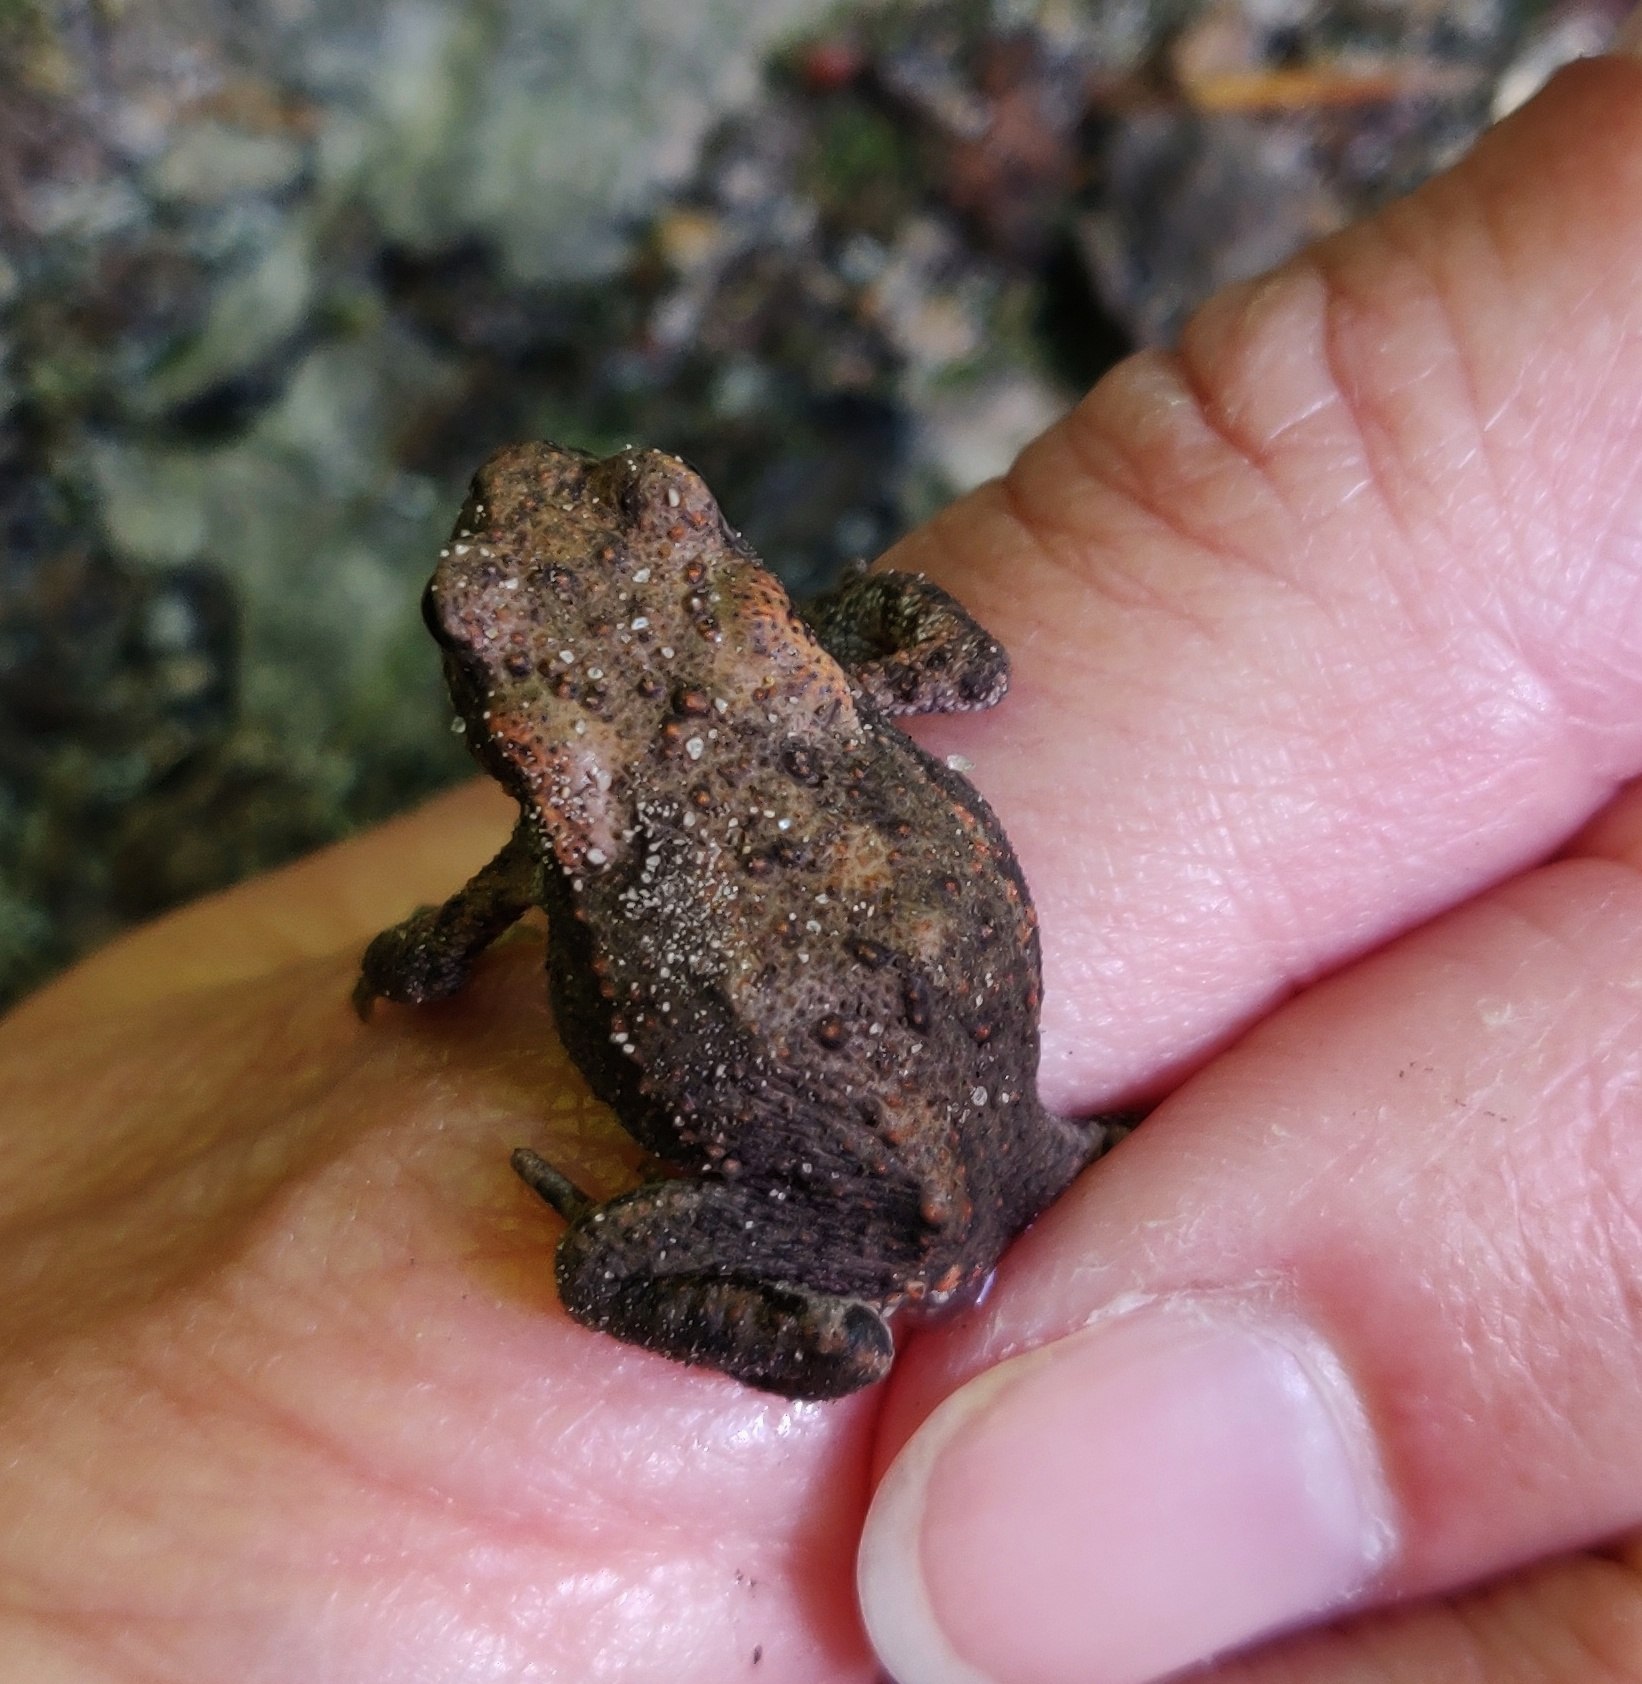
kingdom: Animalia
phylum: Chordata
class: Amphibia
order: Anura
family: Bufonidae
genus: Bufo
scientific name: Bufo bufo
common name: Skrubtudse
